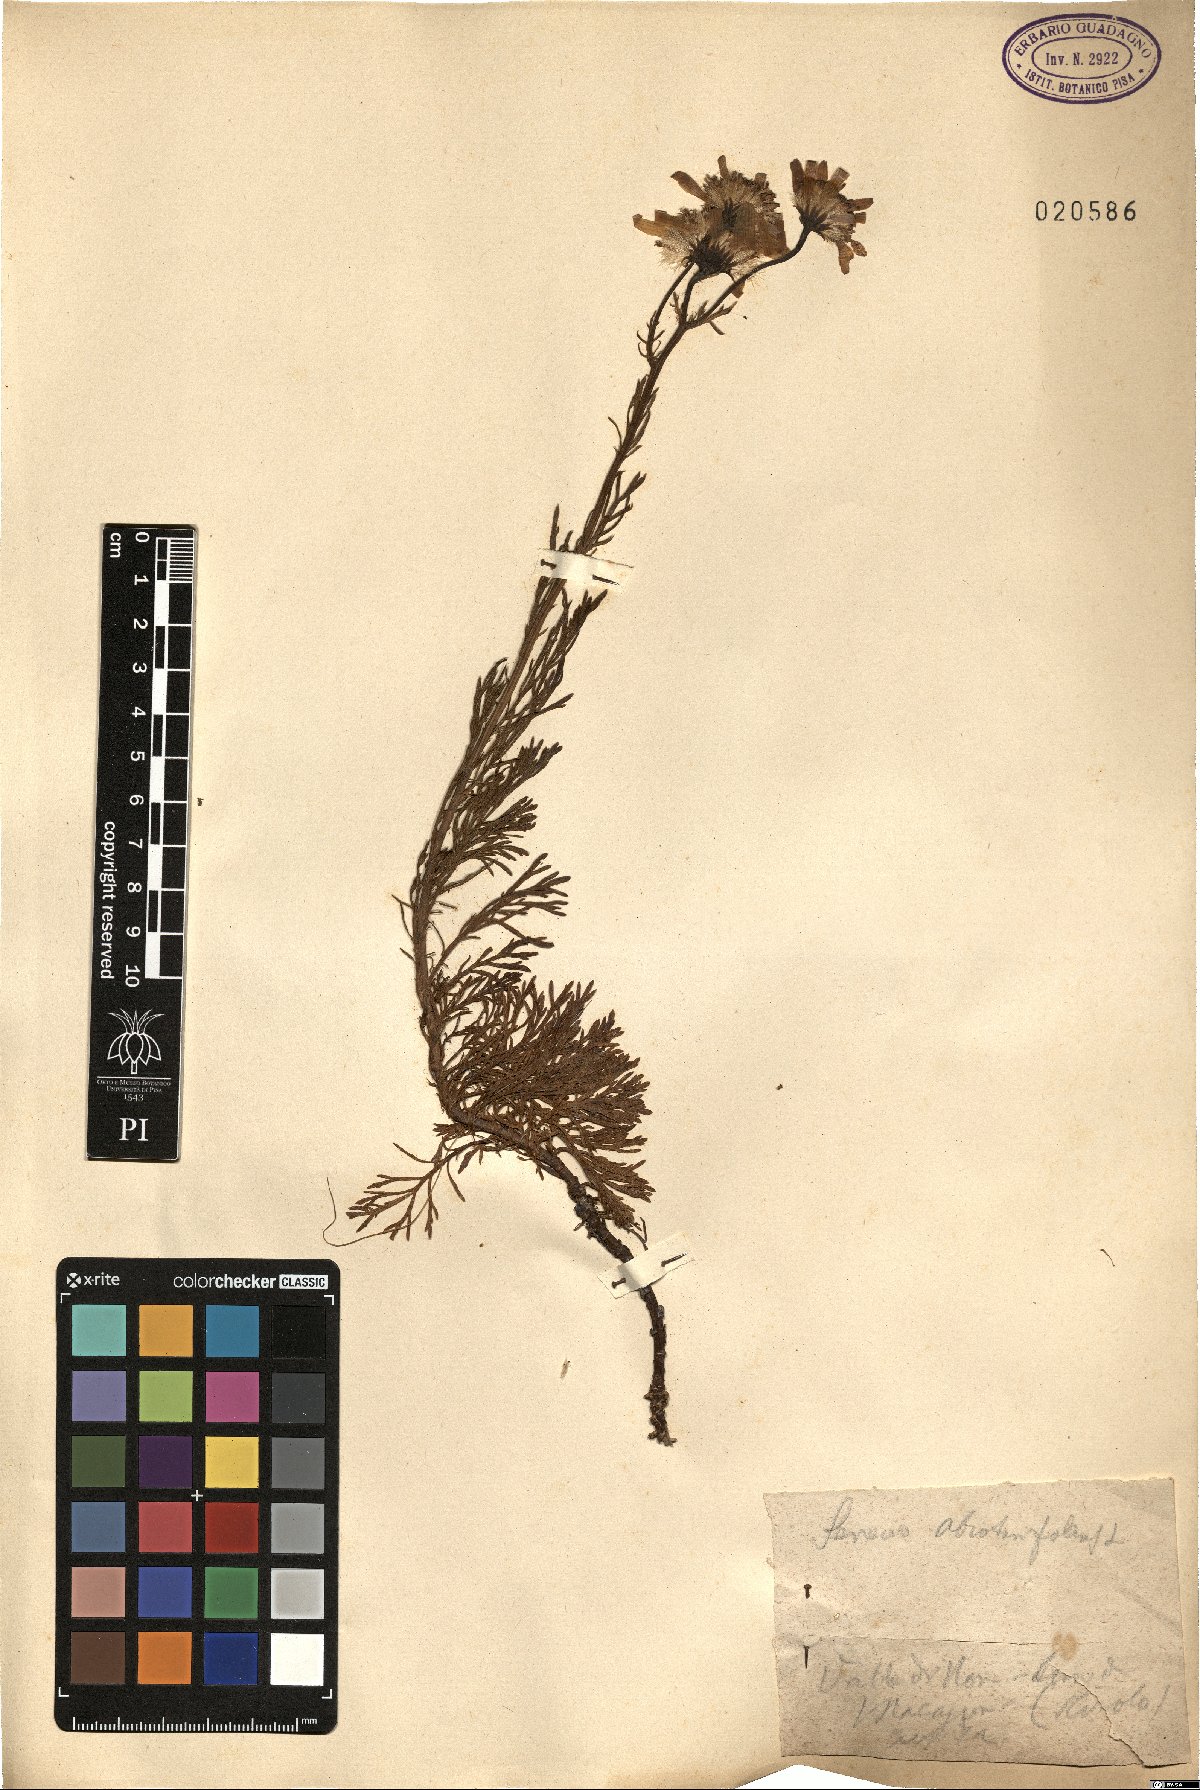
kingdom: Plantae
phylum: Tracheophyta
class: Magnoliopsida
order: Asterales
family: Asteraceae
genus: Jacobaea
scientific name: Jacobaea abrotanifolia
